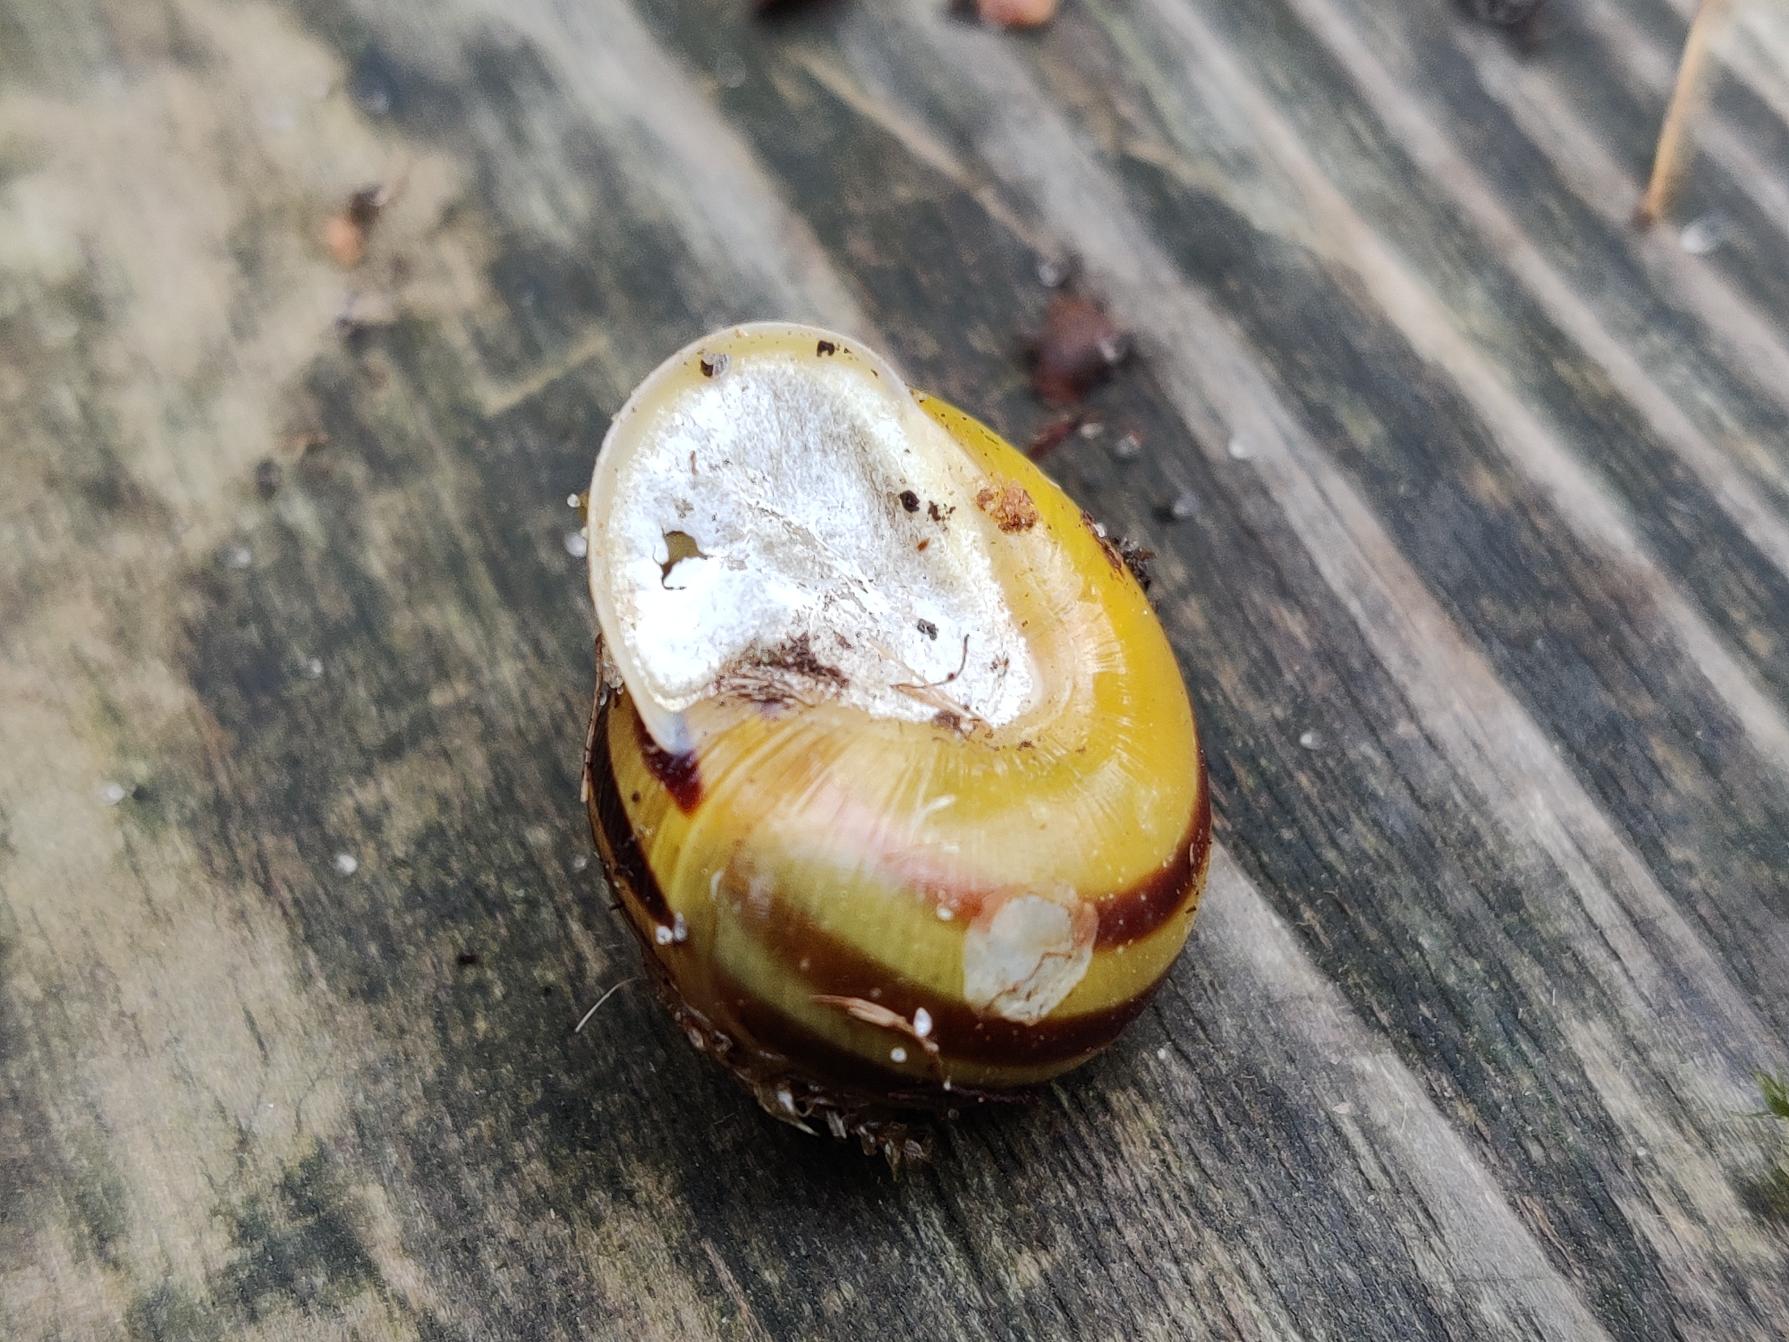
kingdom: Animalia
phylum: Mollusca
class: Gastropoda
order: Stylommatophora
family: Helicidae
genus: Cepaea
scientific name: Cepaea hortensis
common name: Havesnegl
